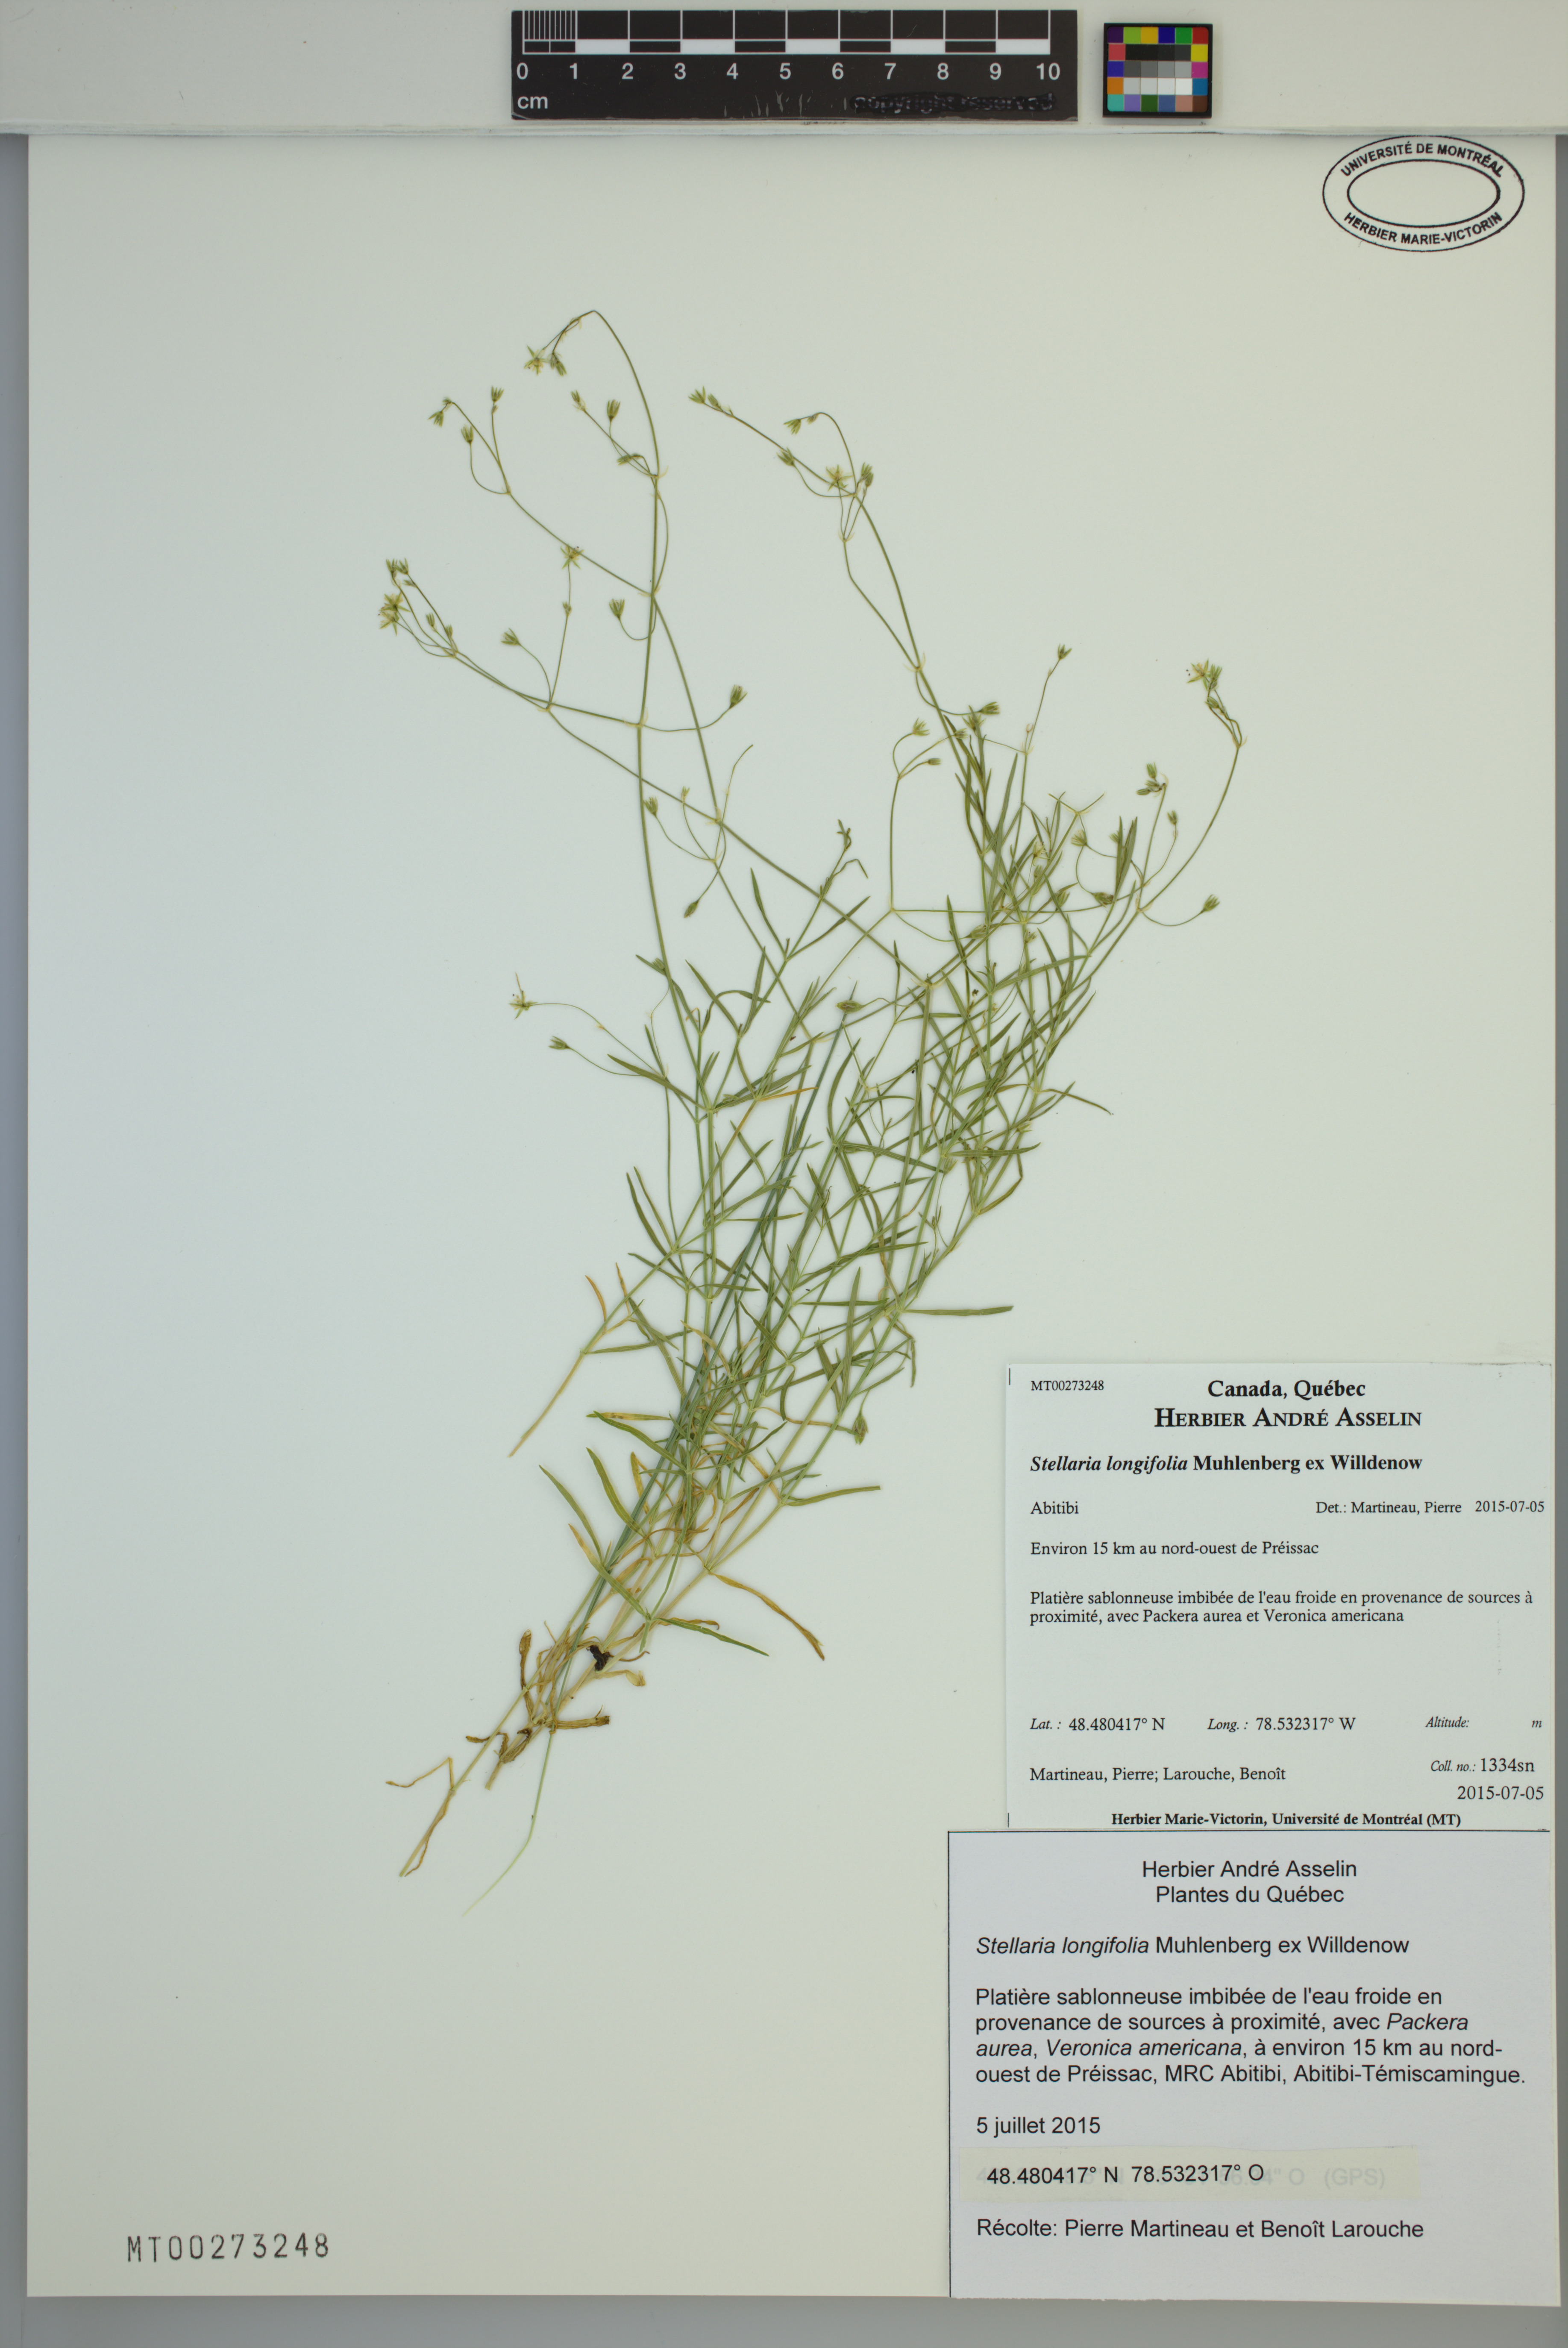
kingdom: Plantae
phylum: Tracheophyta
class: Magnoliopsida
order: Caryophyllales
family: Caryophyllaceae
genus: Stellaria
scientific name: Stellaria longifolia
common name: Long-leaved chickweed
